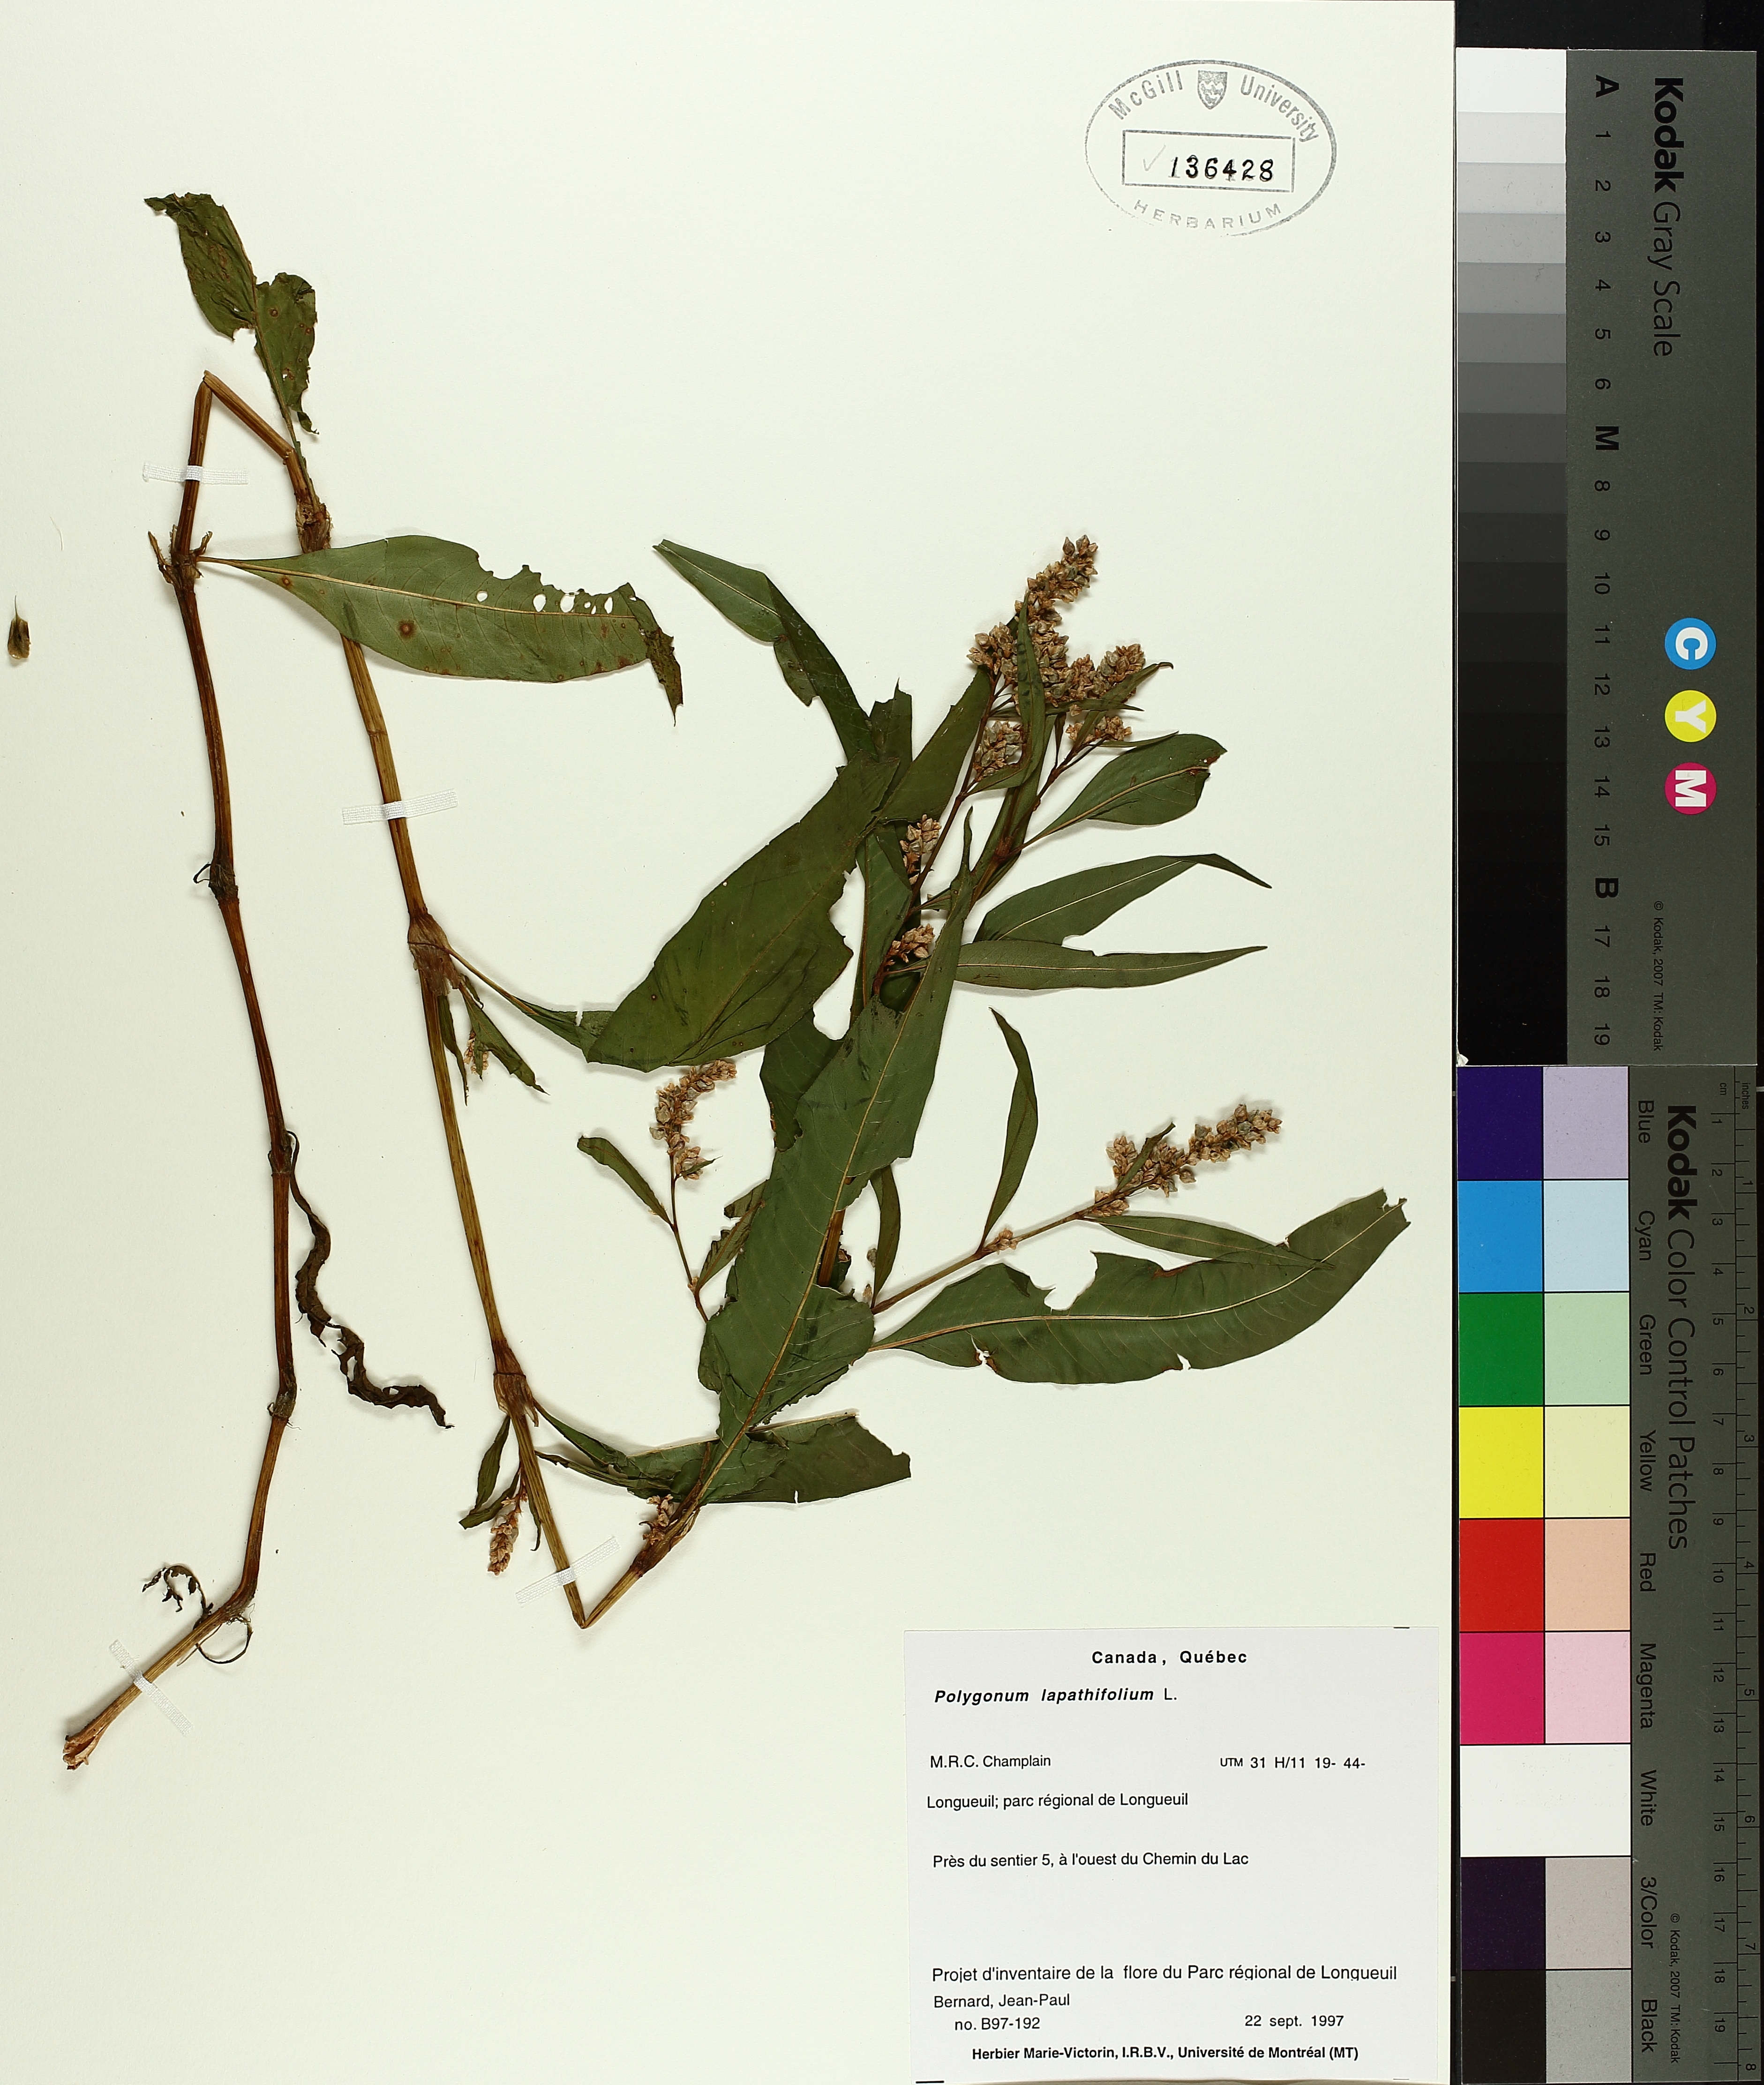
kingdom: Plantae
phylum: Tracheophyta
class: Magnoliopsida
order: Caryophyllales
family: Polygonaceae
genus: Persicaria
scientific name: Persicaria lapathifolia
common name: Curlytop knotweed
